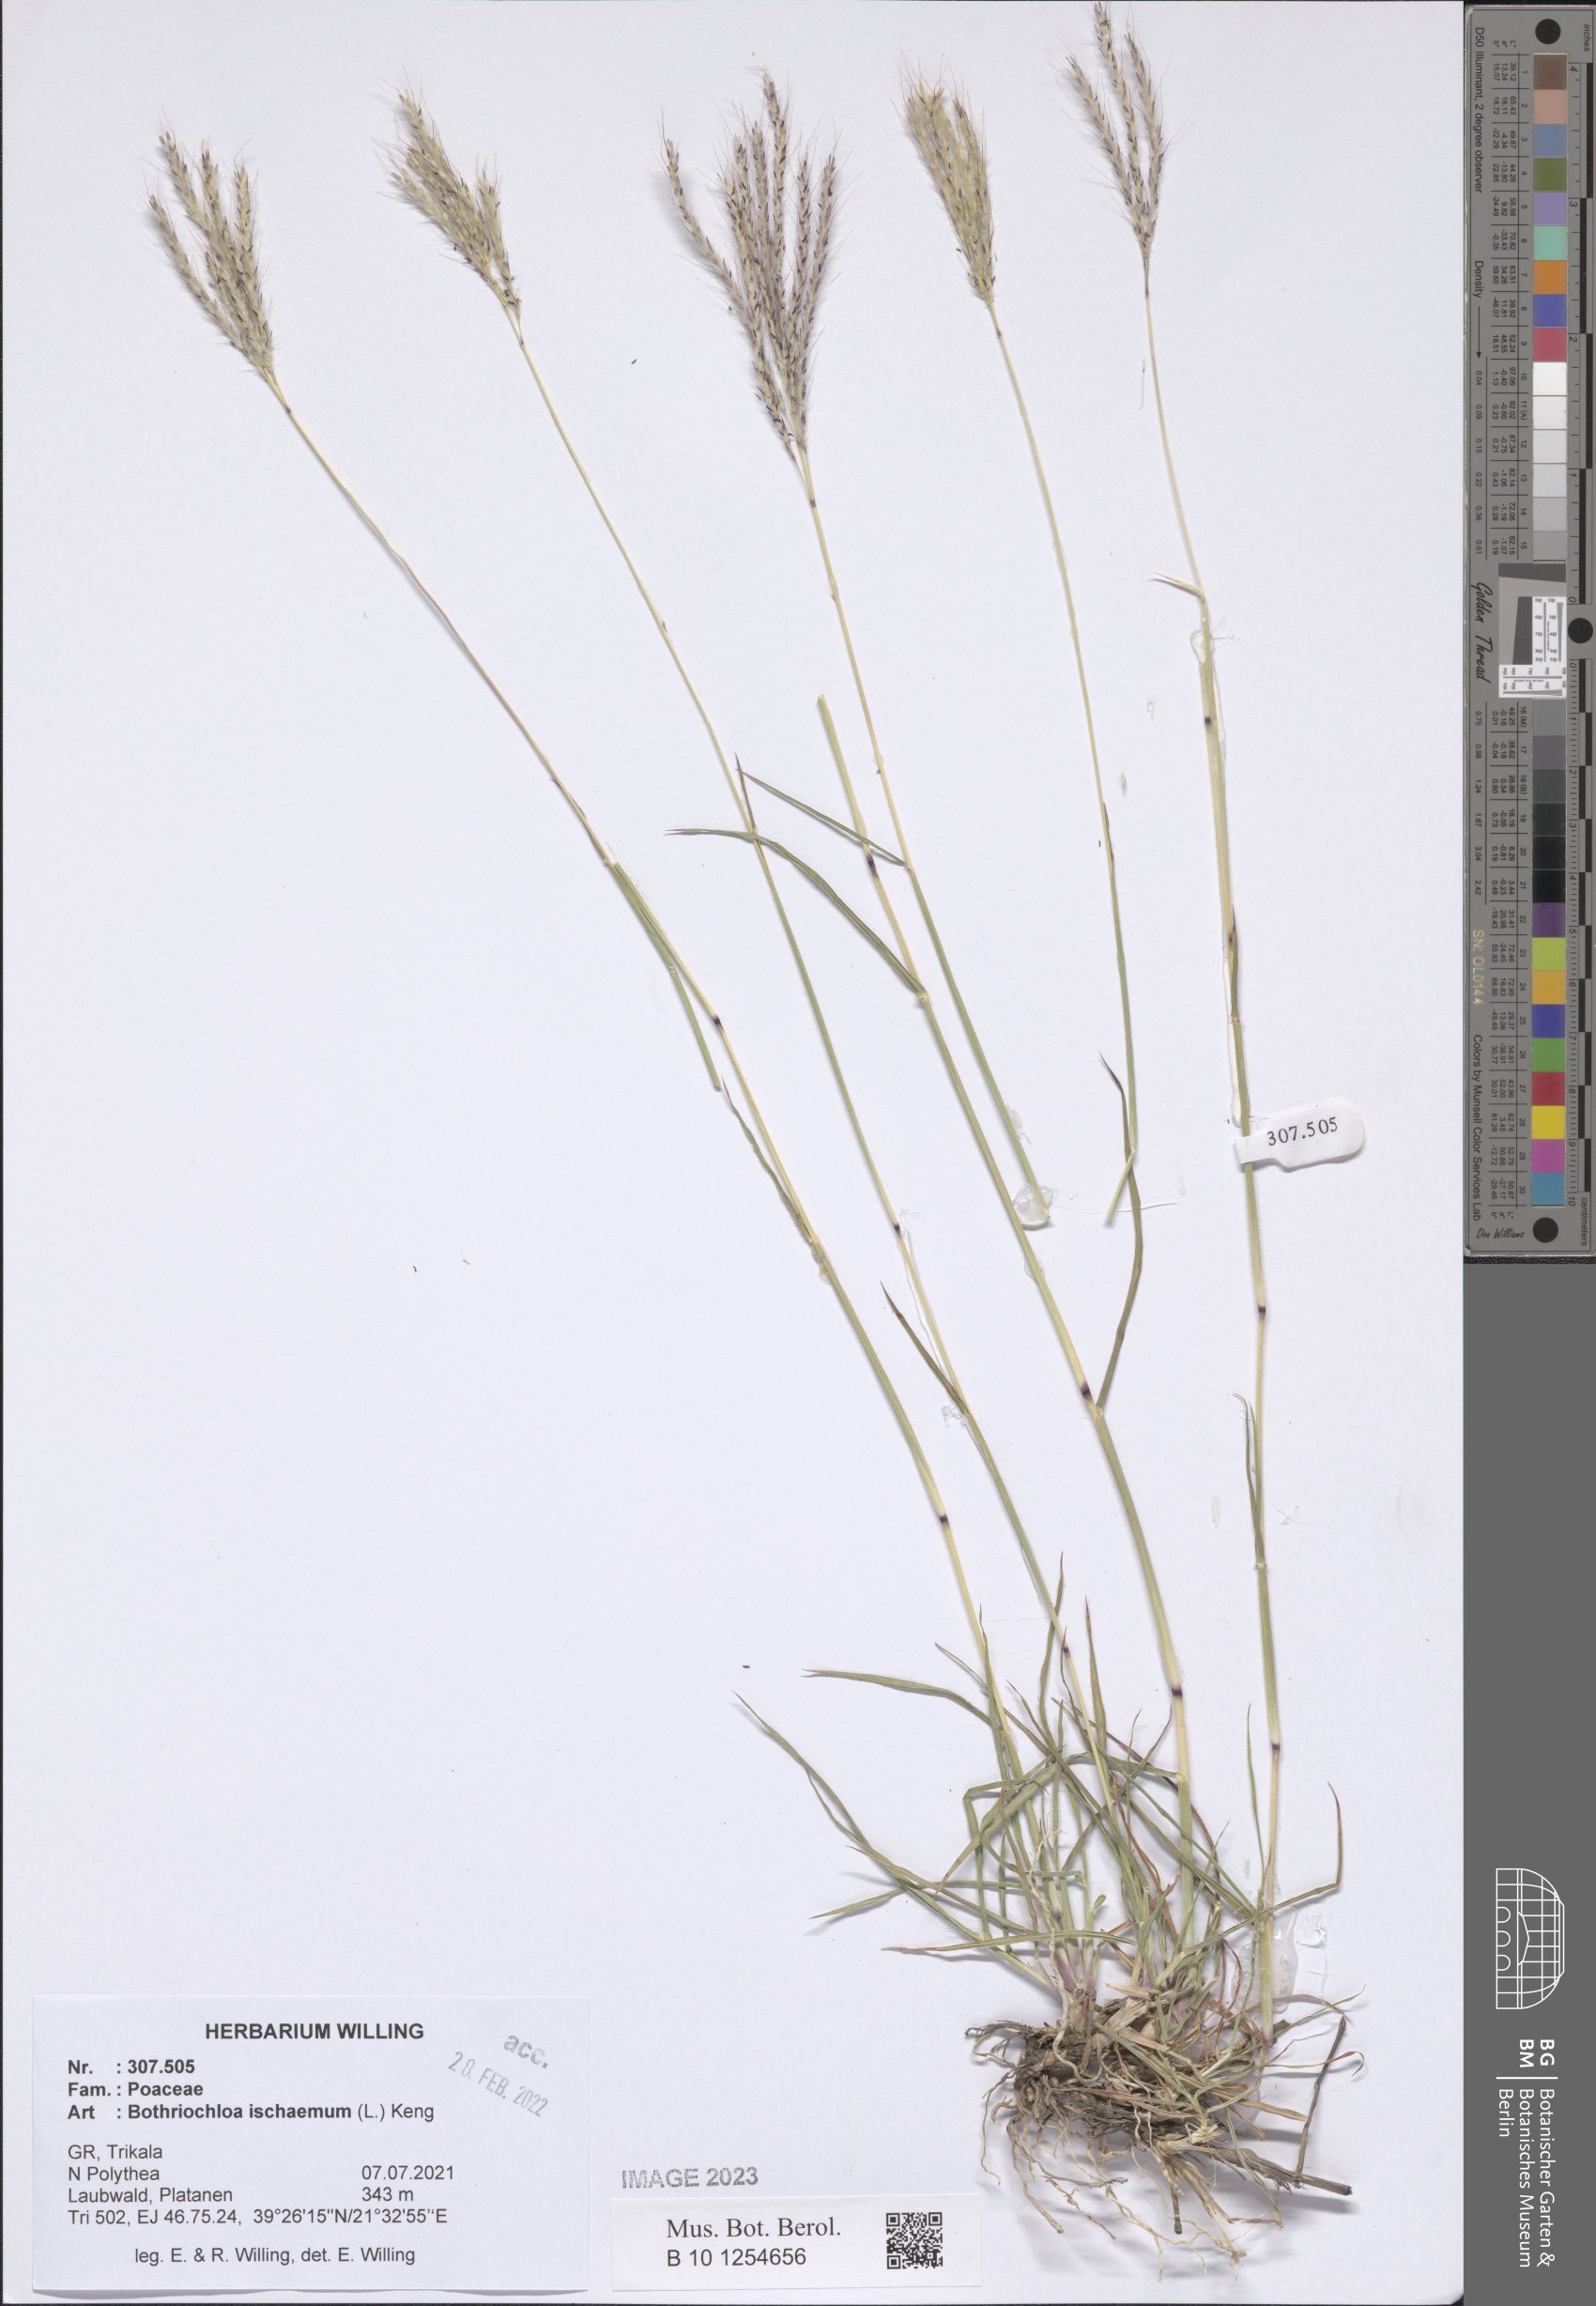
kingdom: Plantae
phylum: Tracheophyta
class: Liliopsida
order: Poales
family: Poaceae
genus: Bothriochloa
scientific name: Bothriochloa ischaemum
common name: Yellow bluestem
